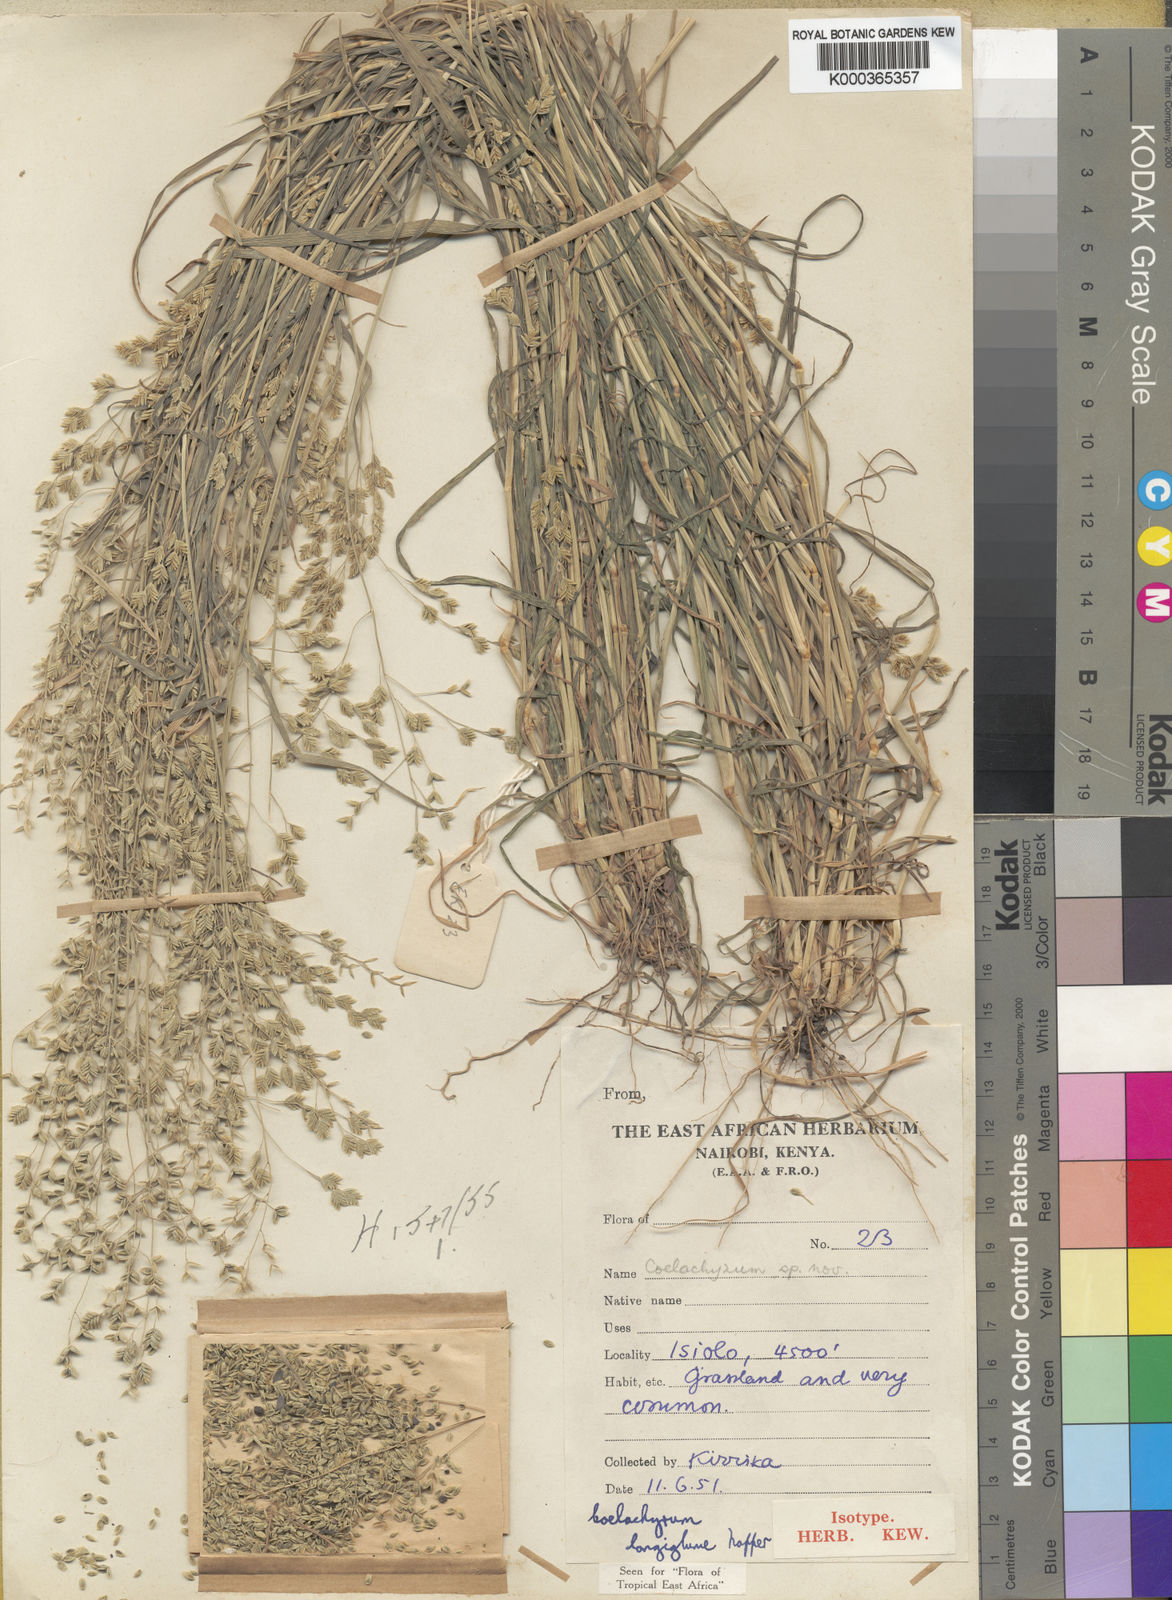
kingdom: Plantae
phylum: Tracheophyta
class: Liliopsida
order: Poales
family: Poaceae
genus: Coelachyrum
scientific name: Coelachyrum longiglume
